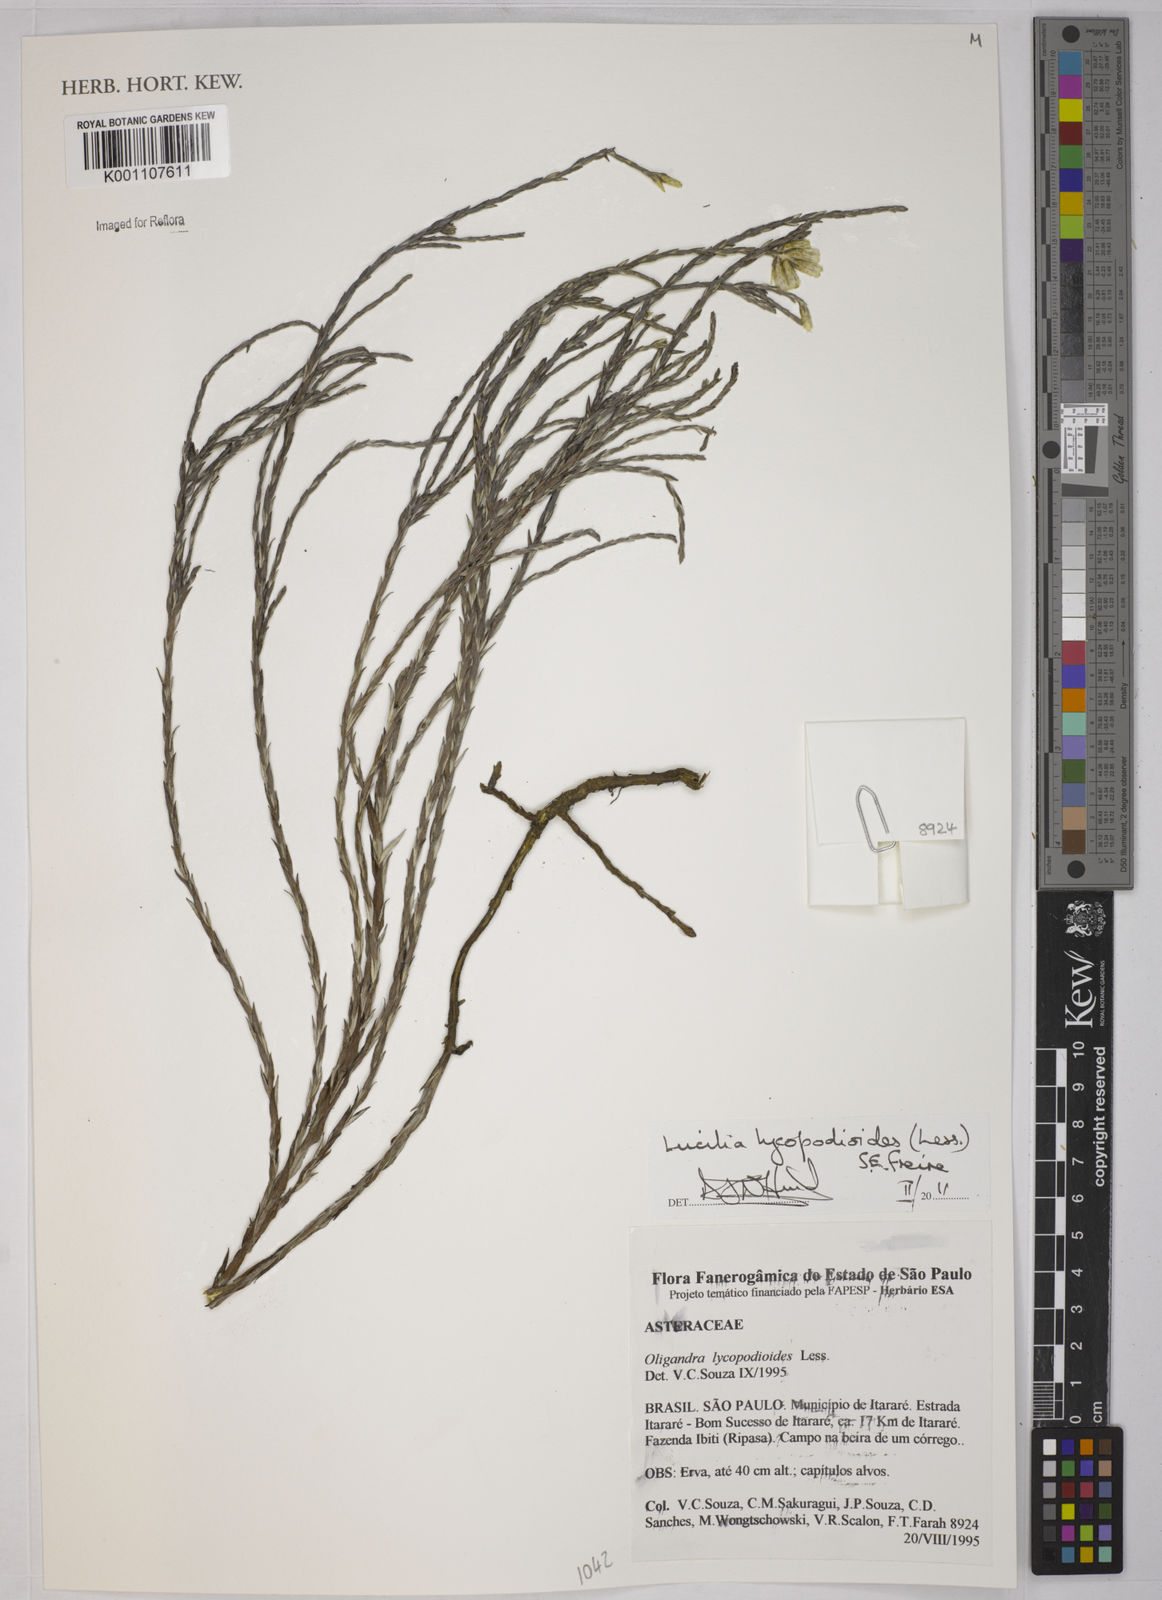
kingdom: Plantae
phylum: Tracheophyta
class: Magnoliopsida
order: Asterales
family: Asteraceae
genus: Lucilia
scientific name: Lucilia lycopodioides
